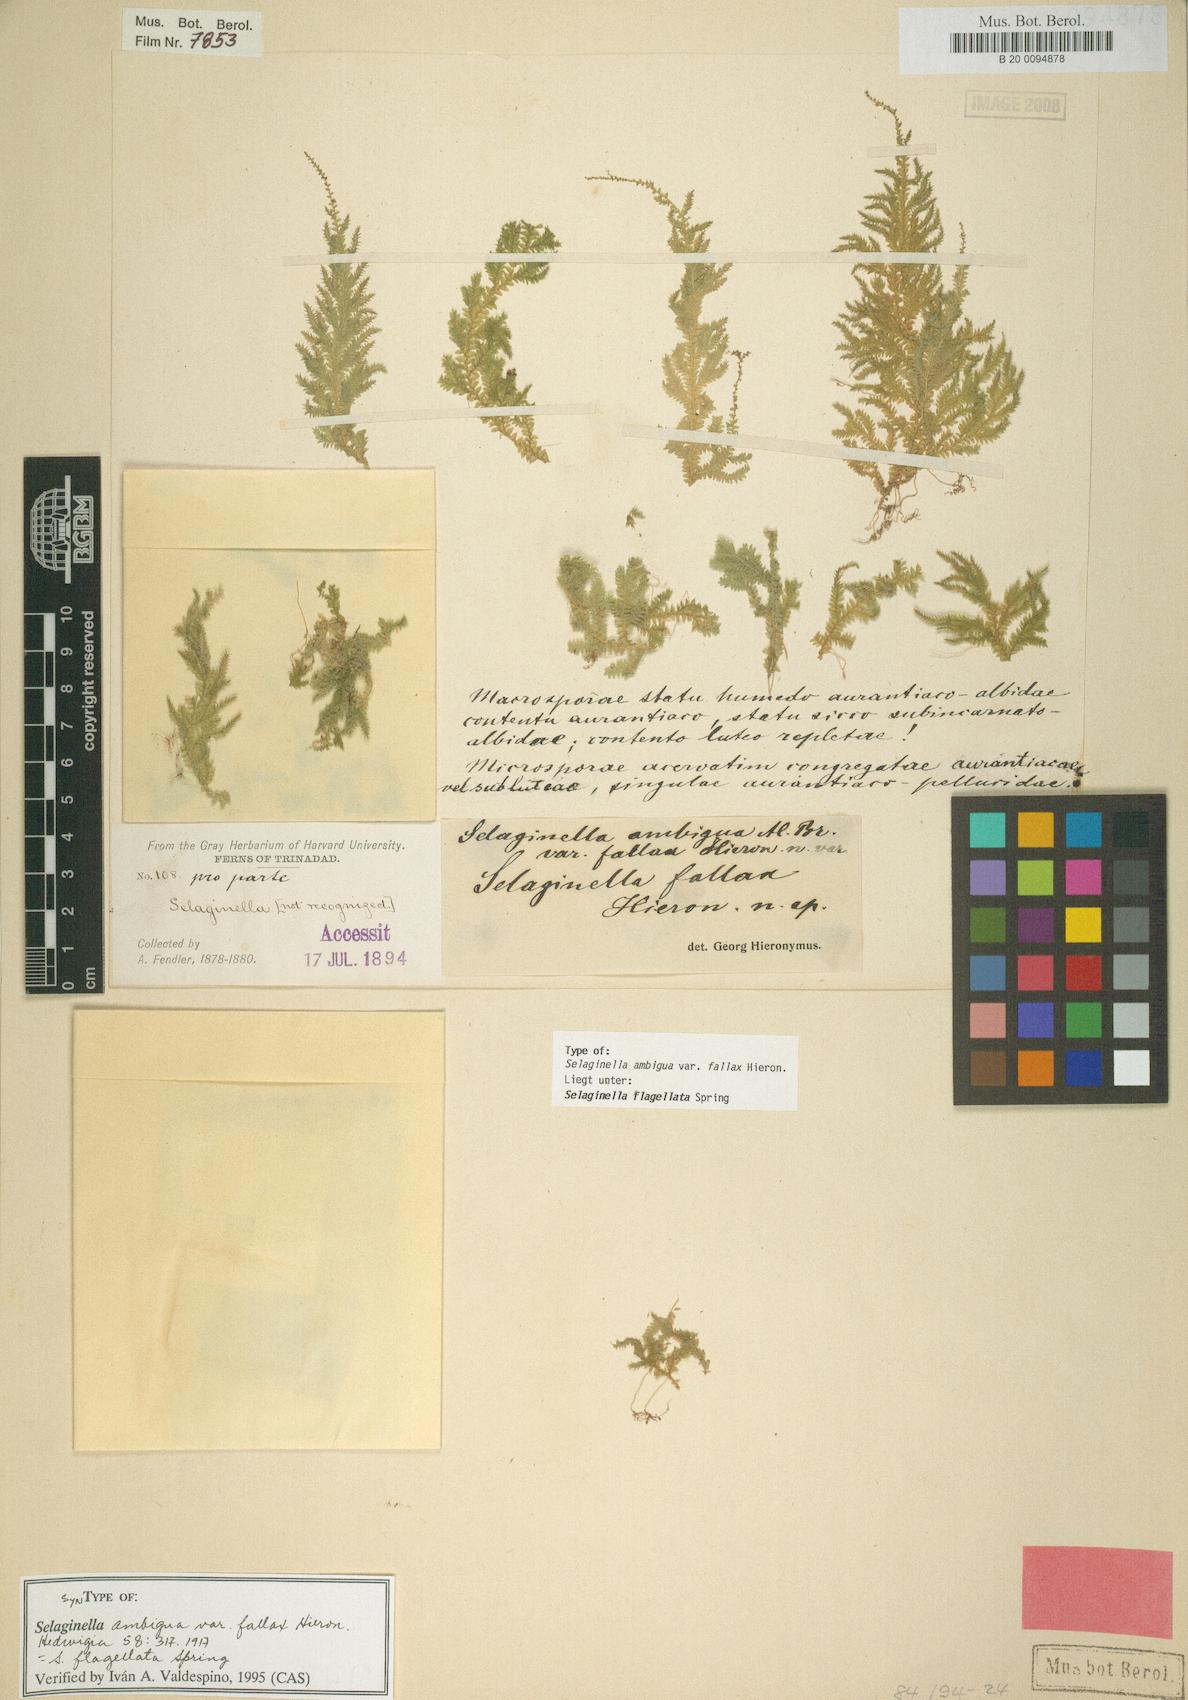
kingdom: Plantae
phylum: Tracheophyta
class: Lycopodiopsida
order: Selaginellales
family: Selaginellaceae
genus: Selaginella
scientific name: Selaginella flagellata
